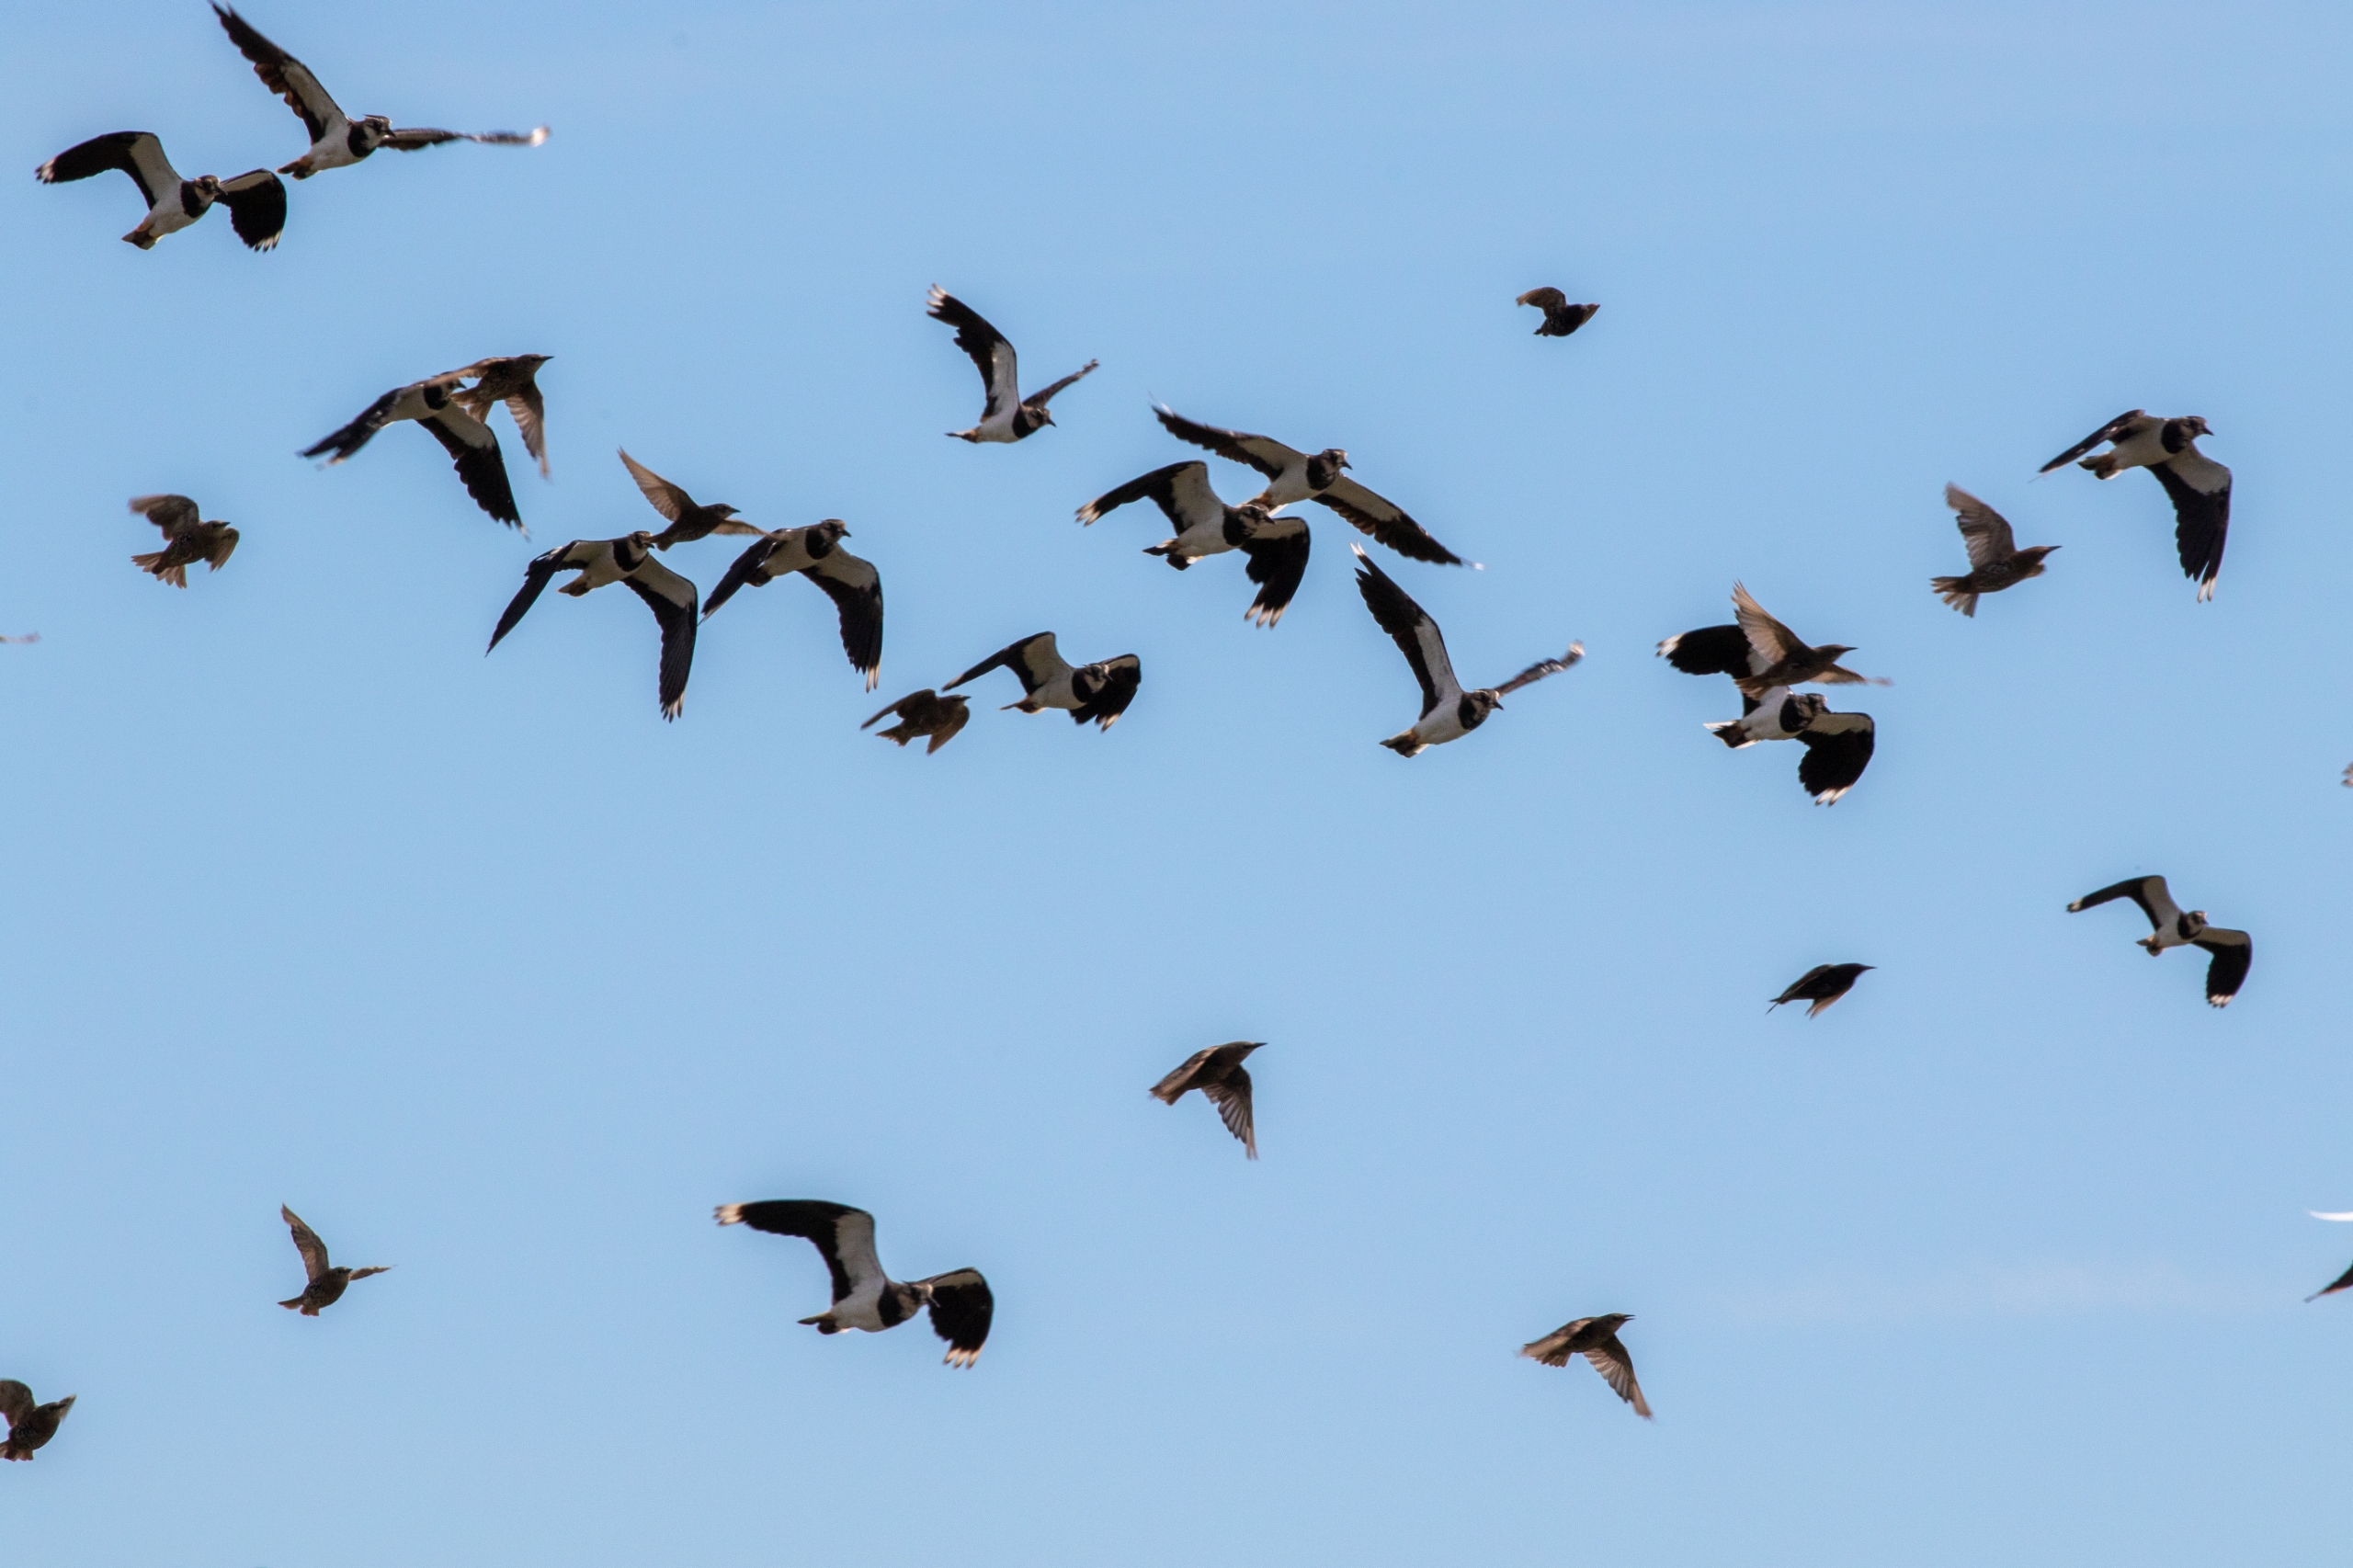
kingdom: Animalia
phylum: Chordata
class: Aves
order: Passeriformes
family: Sturnidae
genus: Sturnus
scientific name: Sturnus vulgaris
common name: Stær
